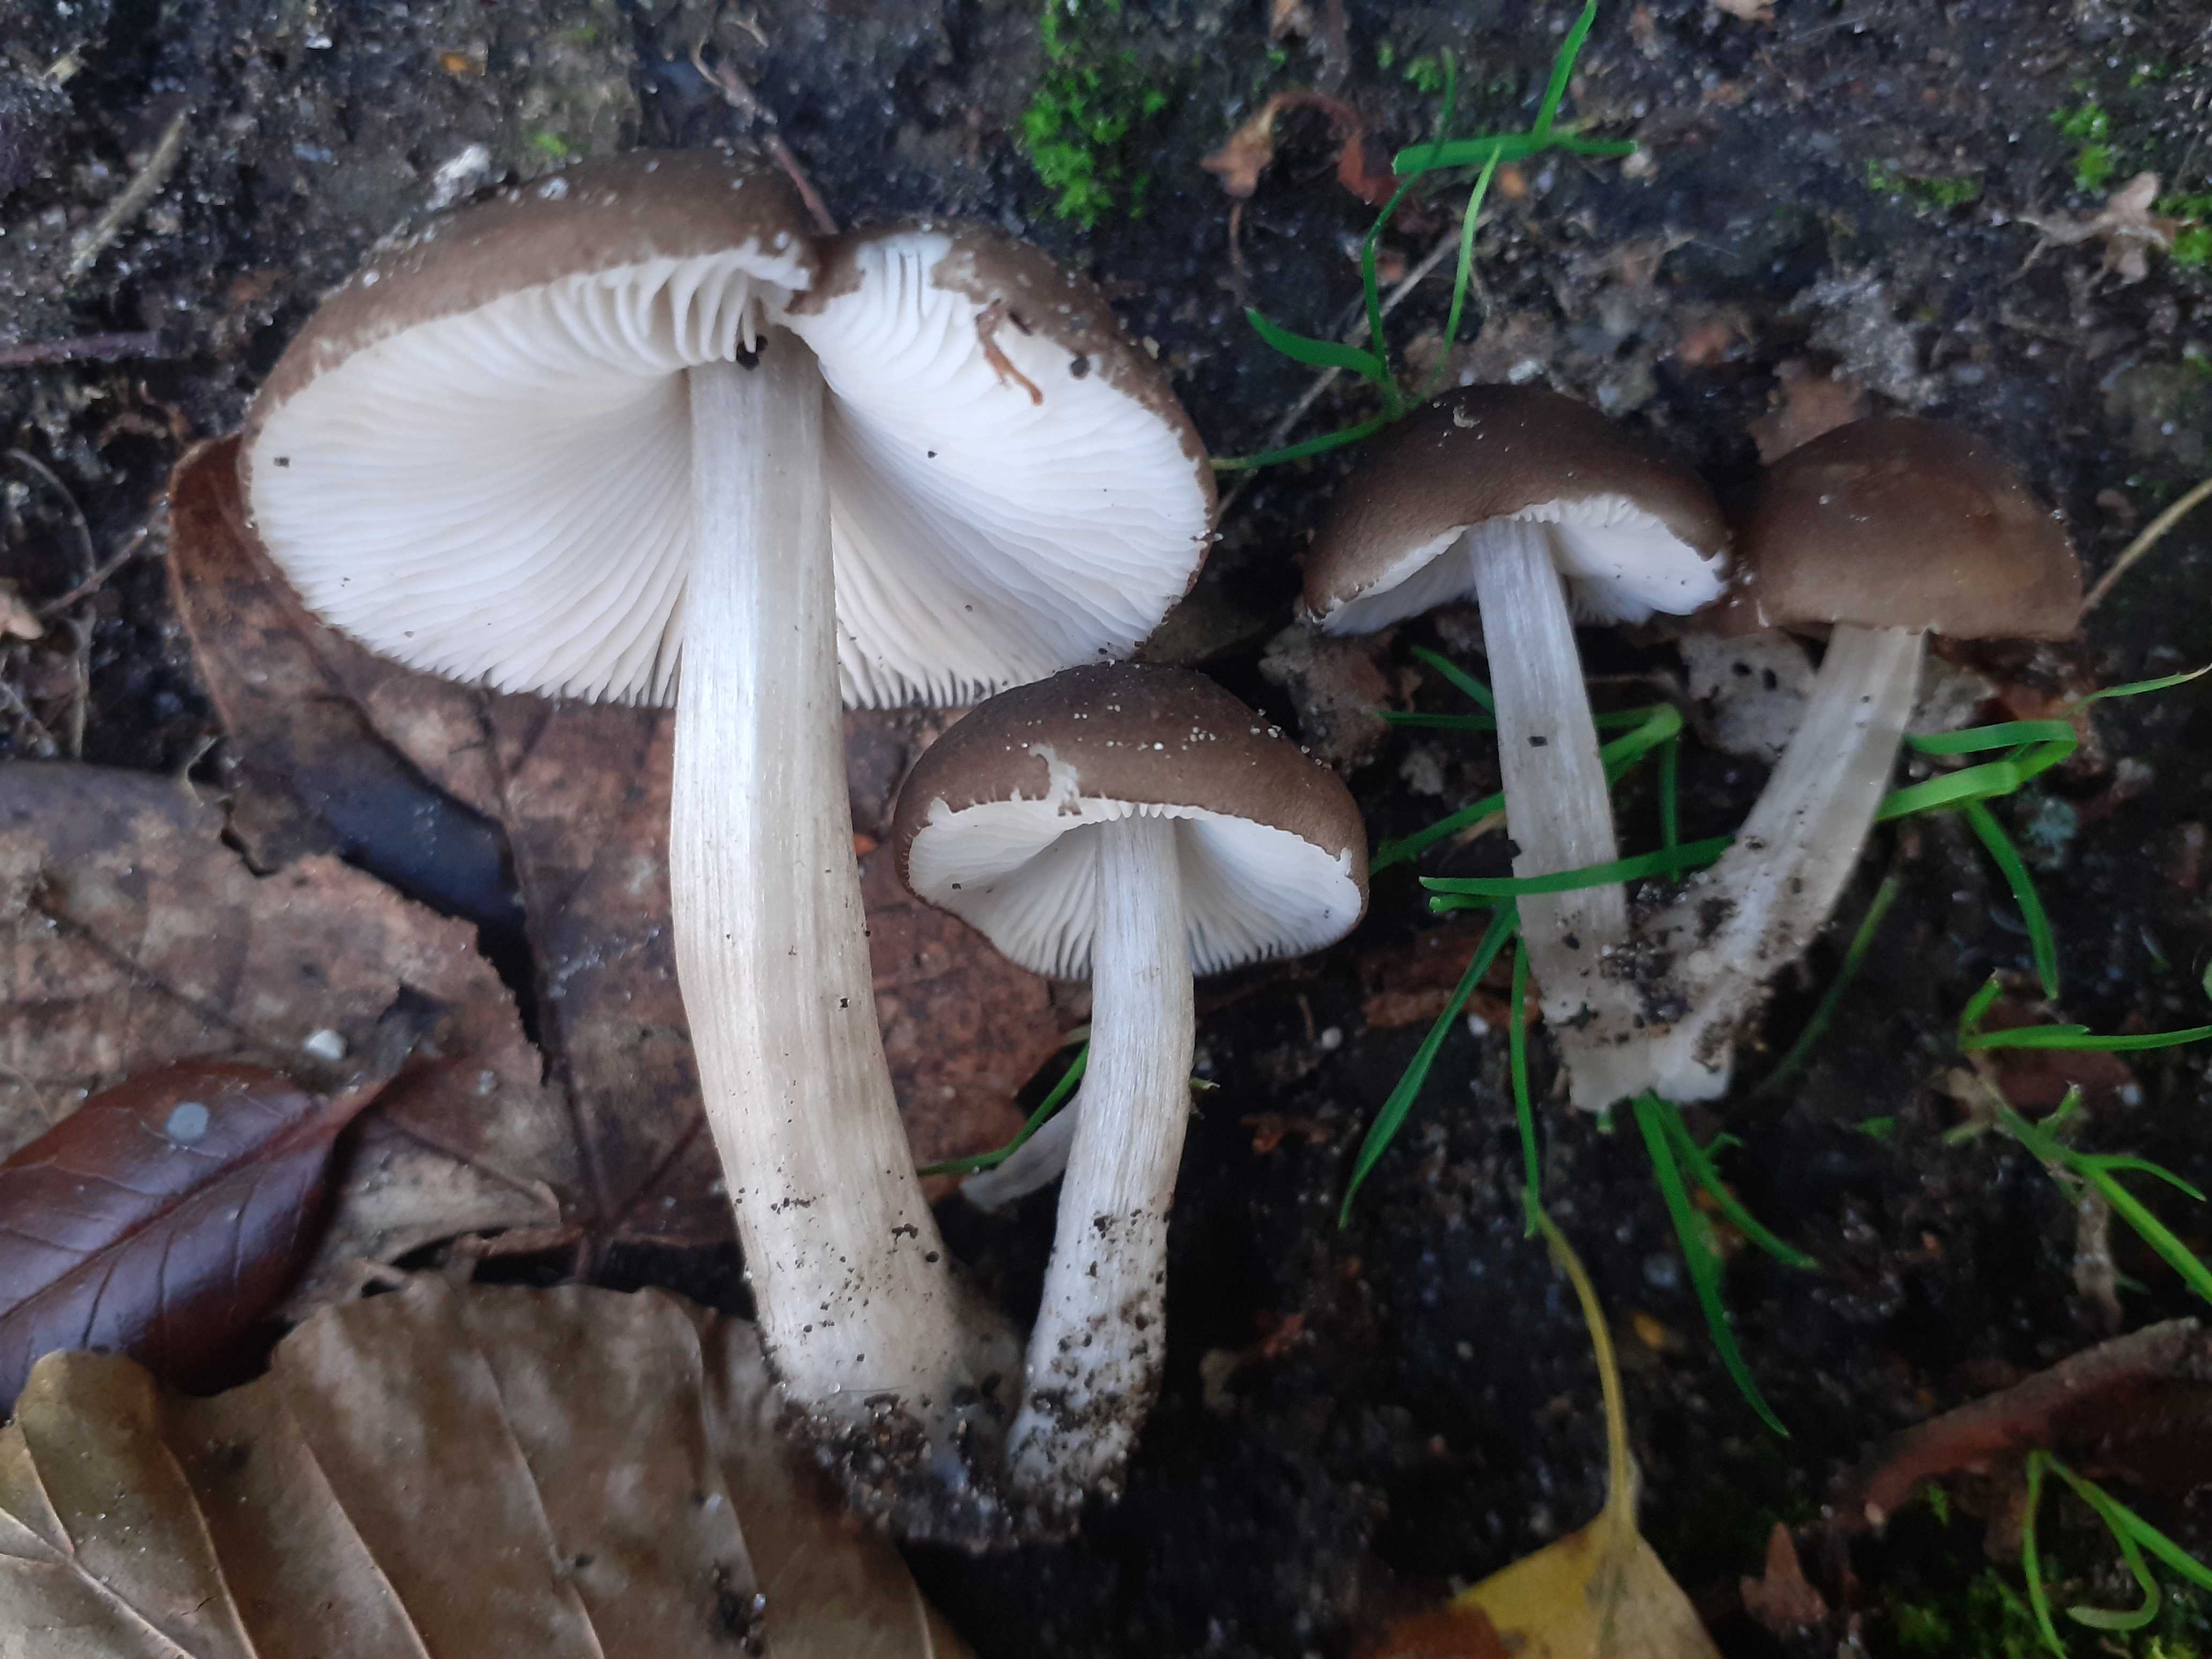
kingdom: Fungi
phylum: Basidiomycota
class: Agaricomycetes
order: Agaricales
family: Pluteaceae
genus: Pluteus
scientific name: Pluteus
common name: pudret skærmhat
